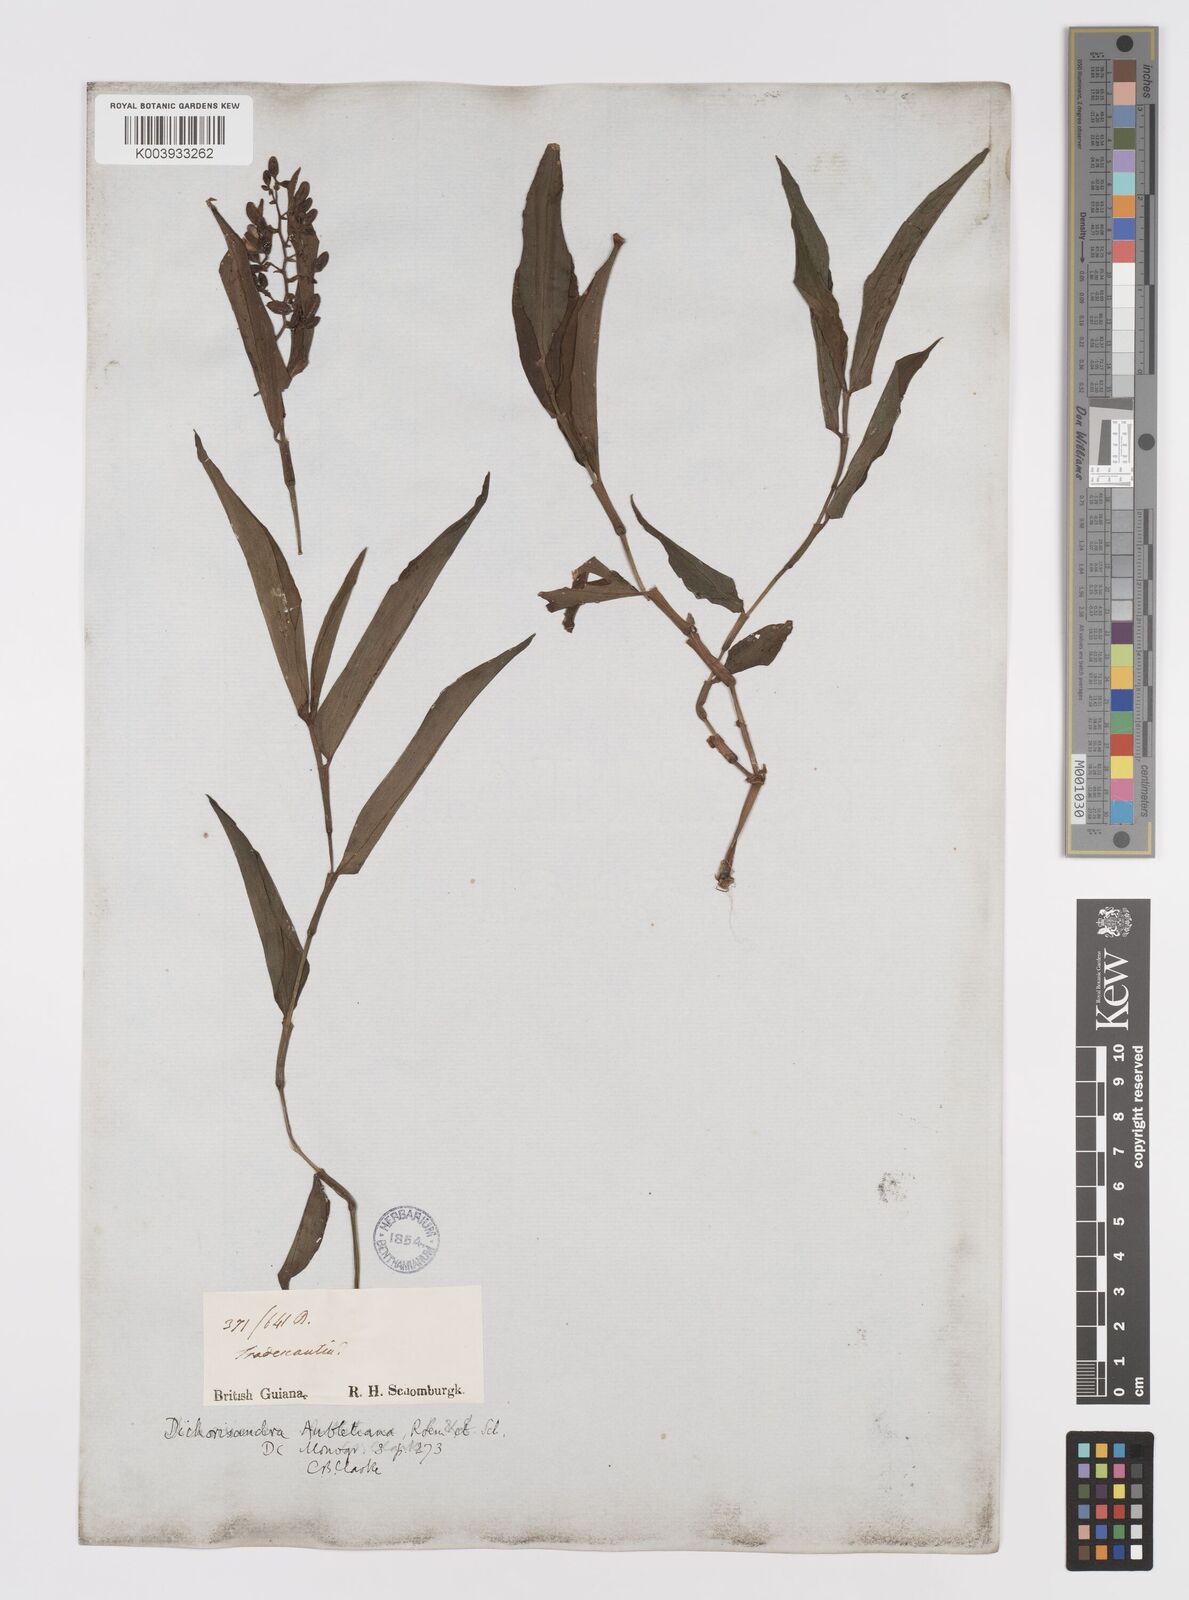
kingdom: Plantae
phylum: Tracheophyta
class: Liliopsida
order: Commelinales
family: Commelinaceae
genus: Dichorisandra
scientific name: Dichorisandra hexandra
